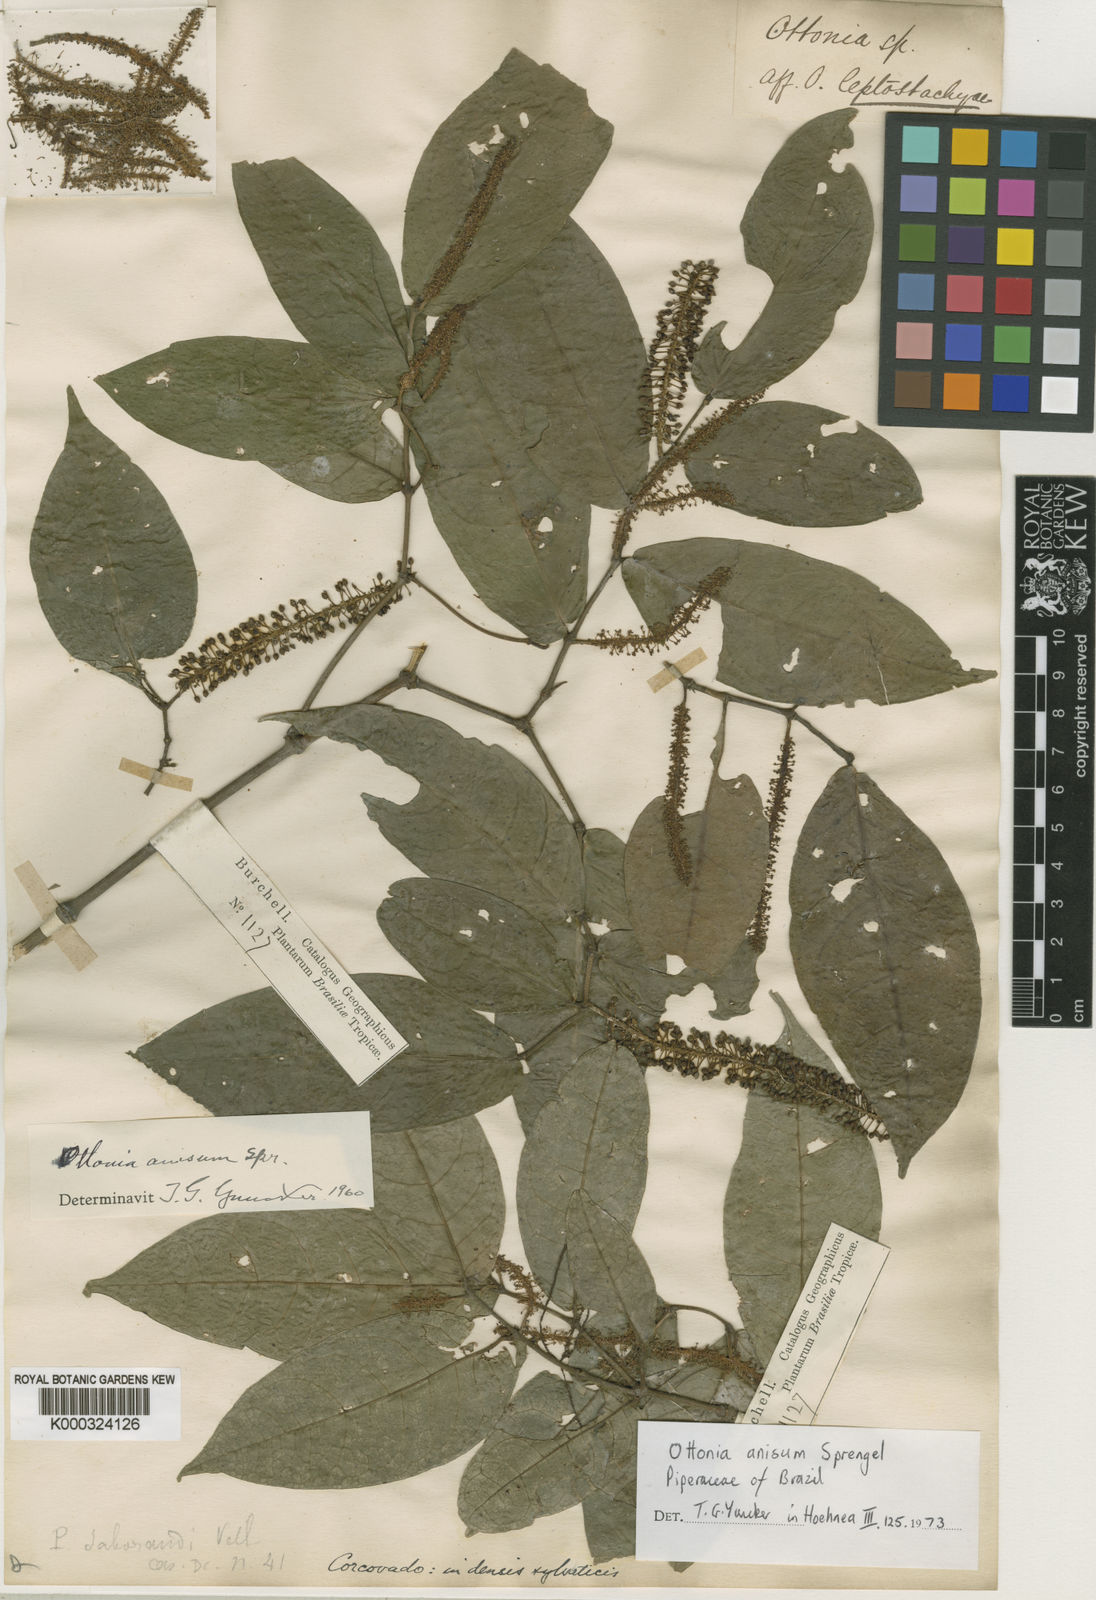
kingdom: Plantae
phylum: Tracheophyta
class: Magnoliopsida
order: Piperales
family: Piperaceae
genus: Piper
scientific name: Piper marginatum
